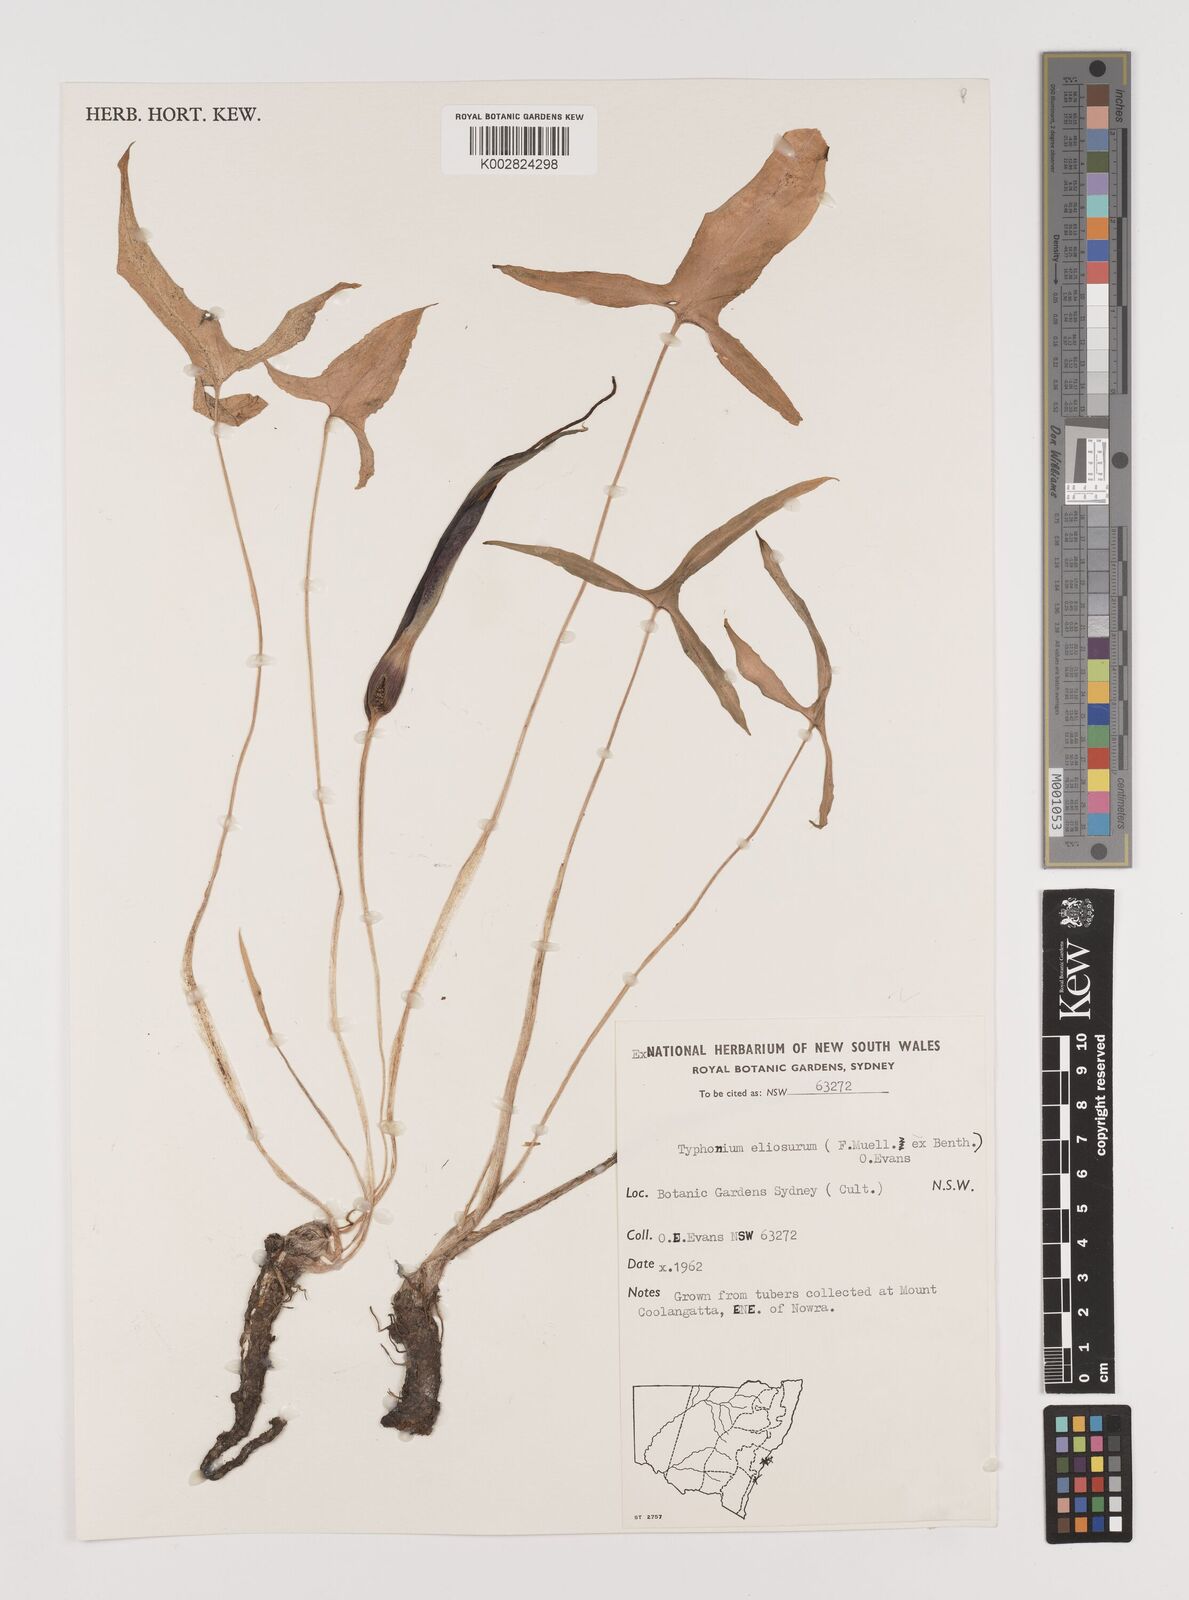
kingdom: Plantae
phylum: Tracheophyta
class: Liliopsida
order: Alismatales
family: Araceae
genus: Typhonium
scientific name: Typhonium eliosurum
